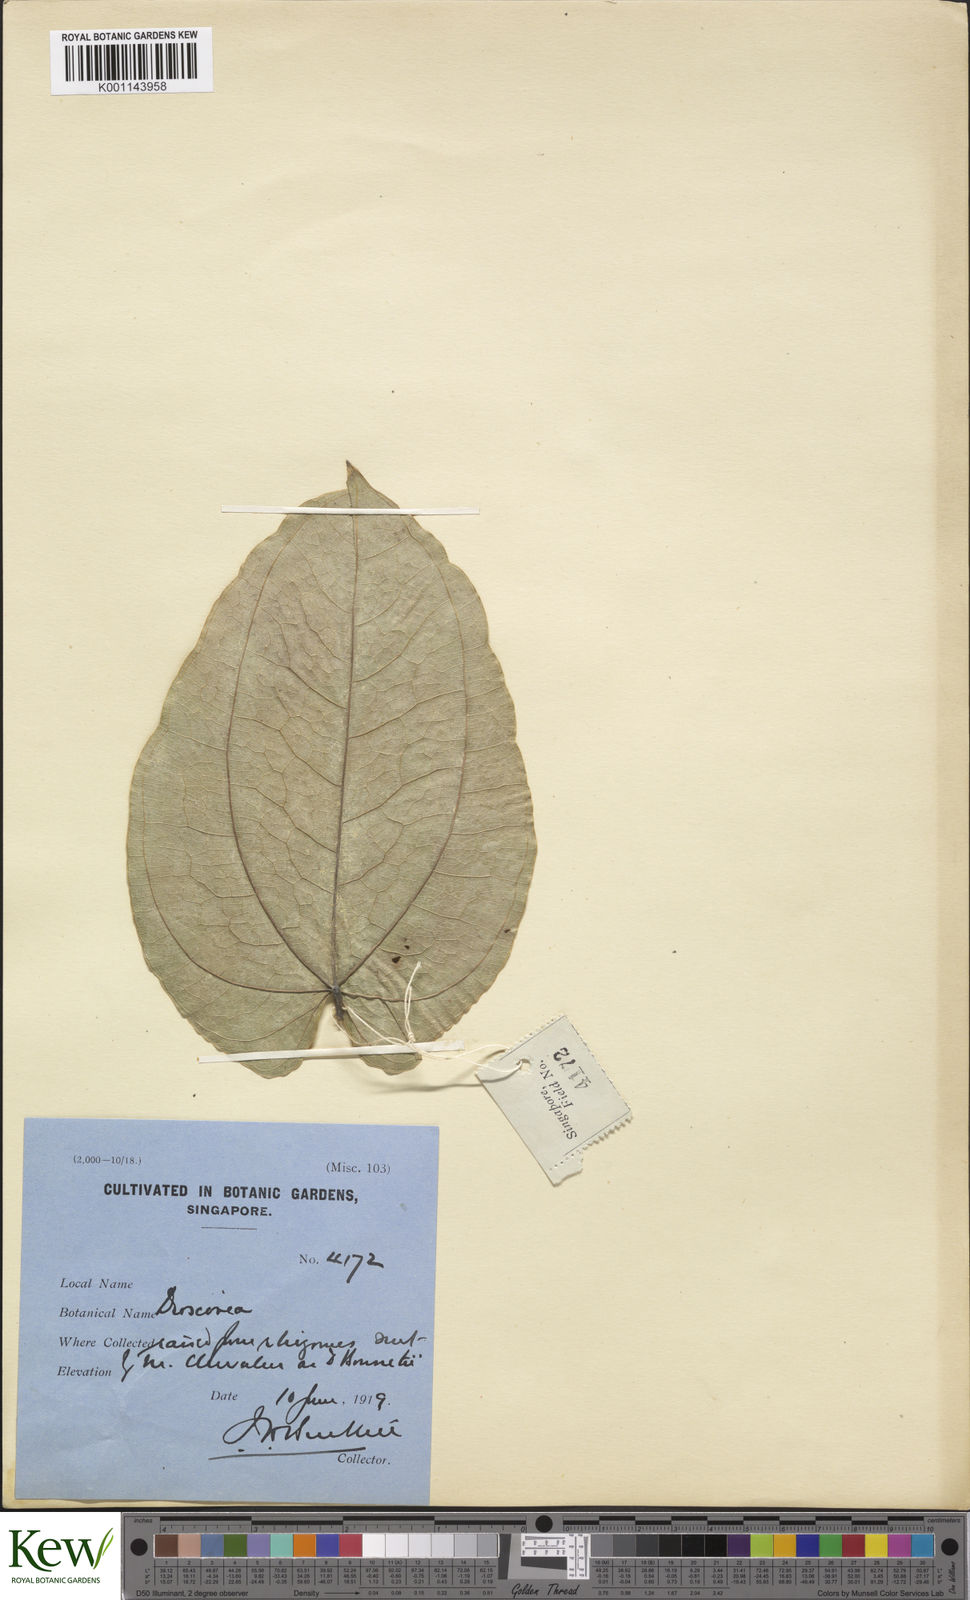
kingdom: Plantae
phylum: Tracheophyta
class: Liliopsida
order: Dioscoreales
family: Dioscoreaceae
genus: Dioscorea
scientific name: Dioscorea cirrhosa
